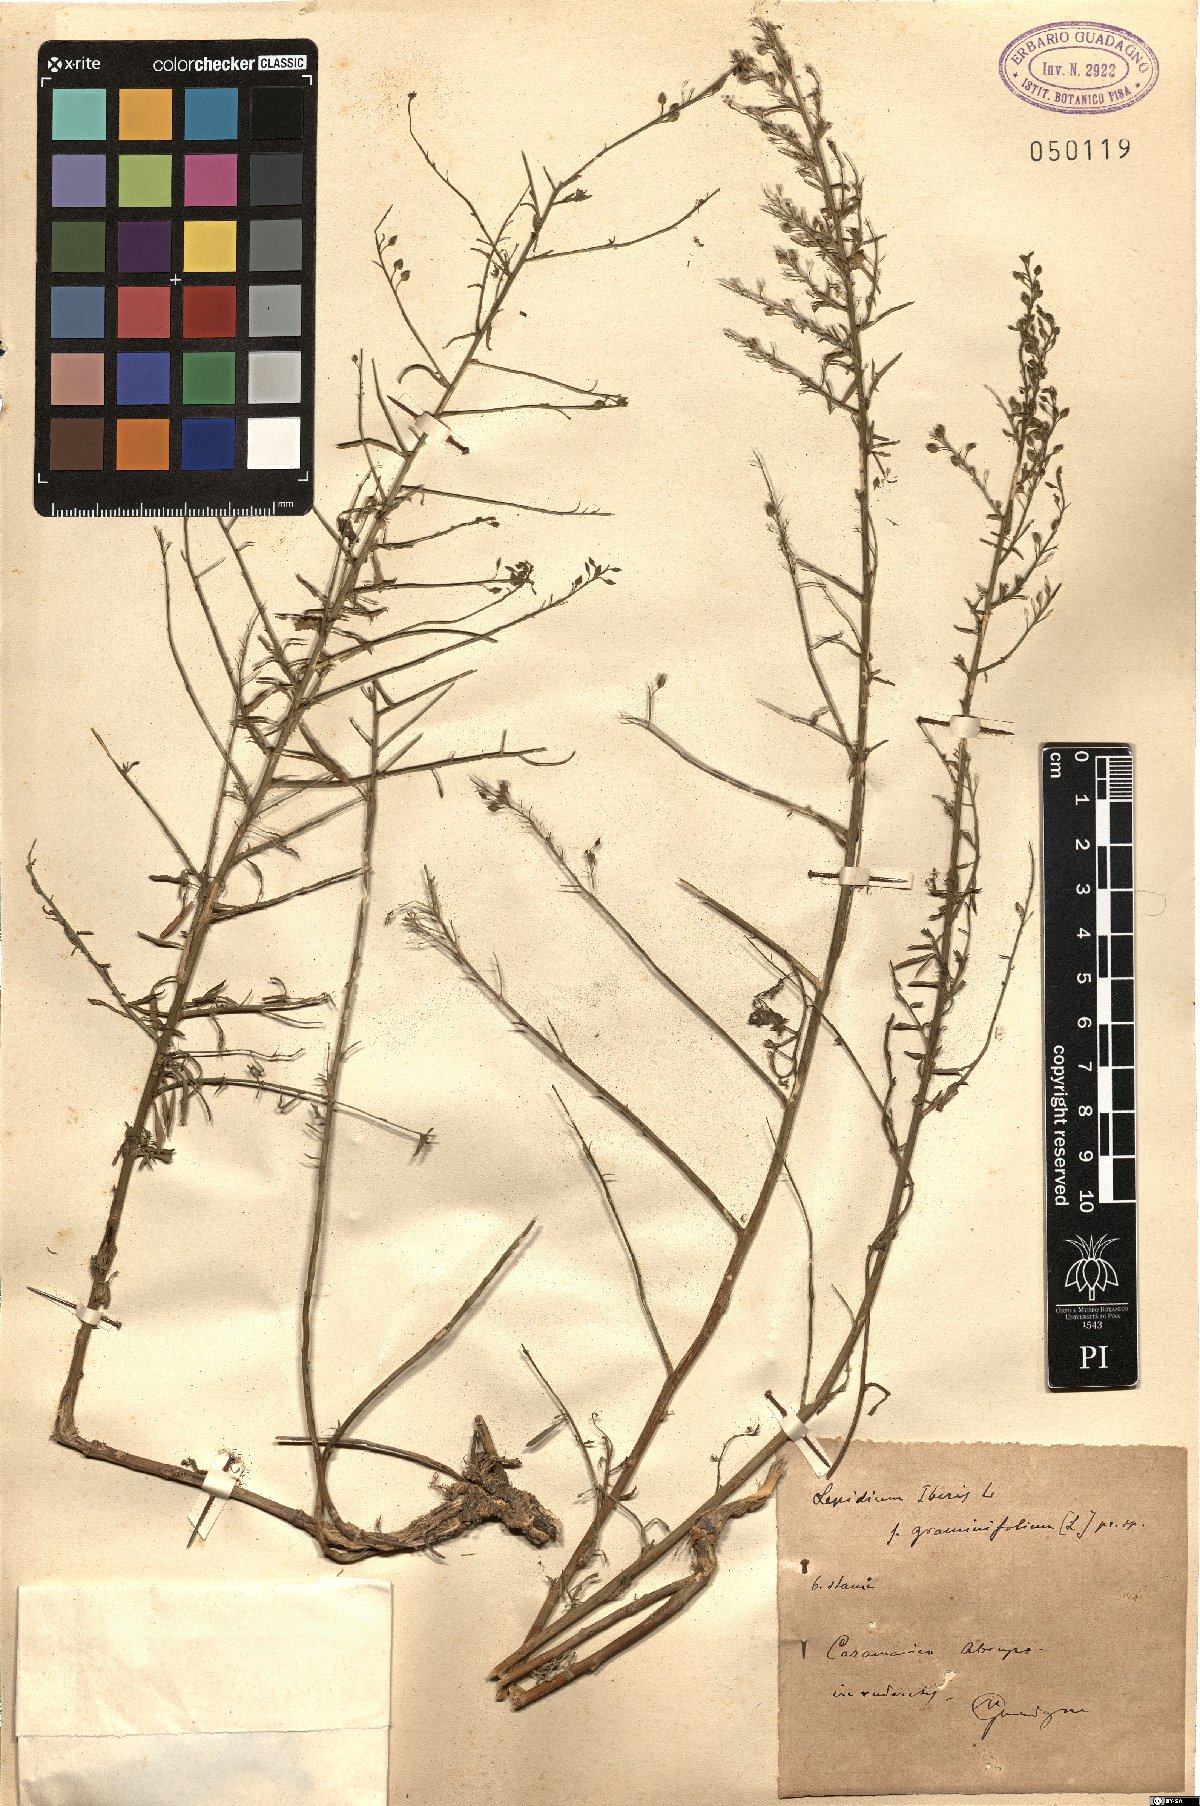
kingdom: Plantae
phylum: Tracheophyta
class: Magnoliopsida
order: Brassicales
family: Brassicaceae
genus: Lepidium
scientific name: Lepidium graminifolium
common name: Tall pepperwort
